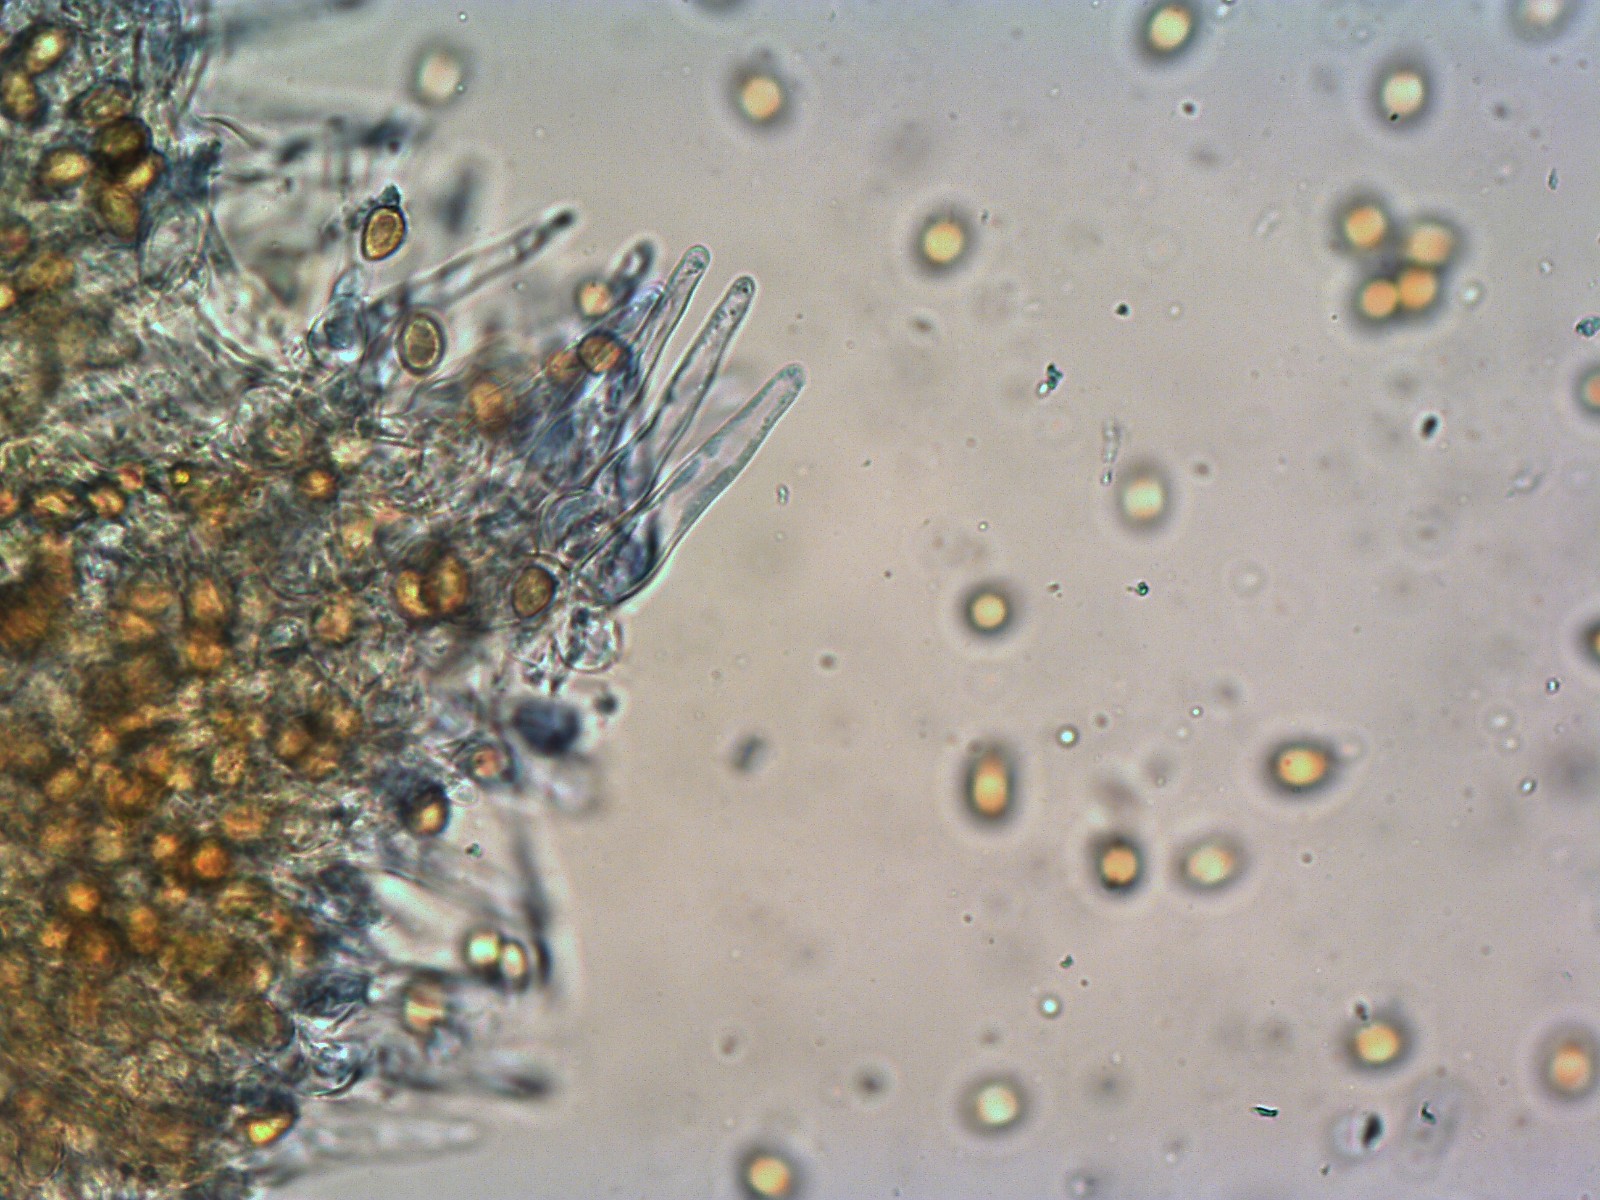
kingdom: Fungi
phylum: Basidiomycota
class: Agaricomycetes
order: Agaricales
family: Hymenogastraceae
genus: Galerina
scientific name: Galerina vittiformis
